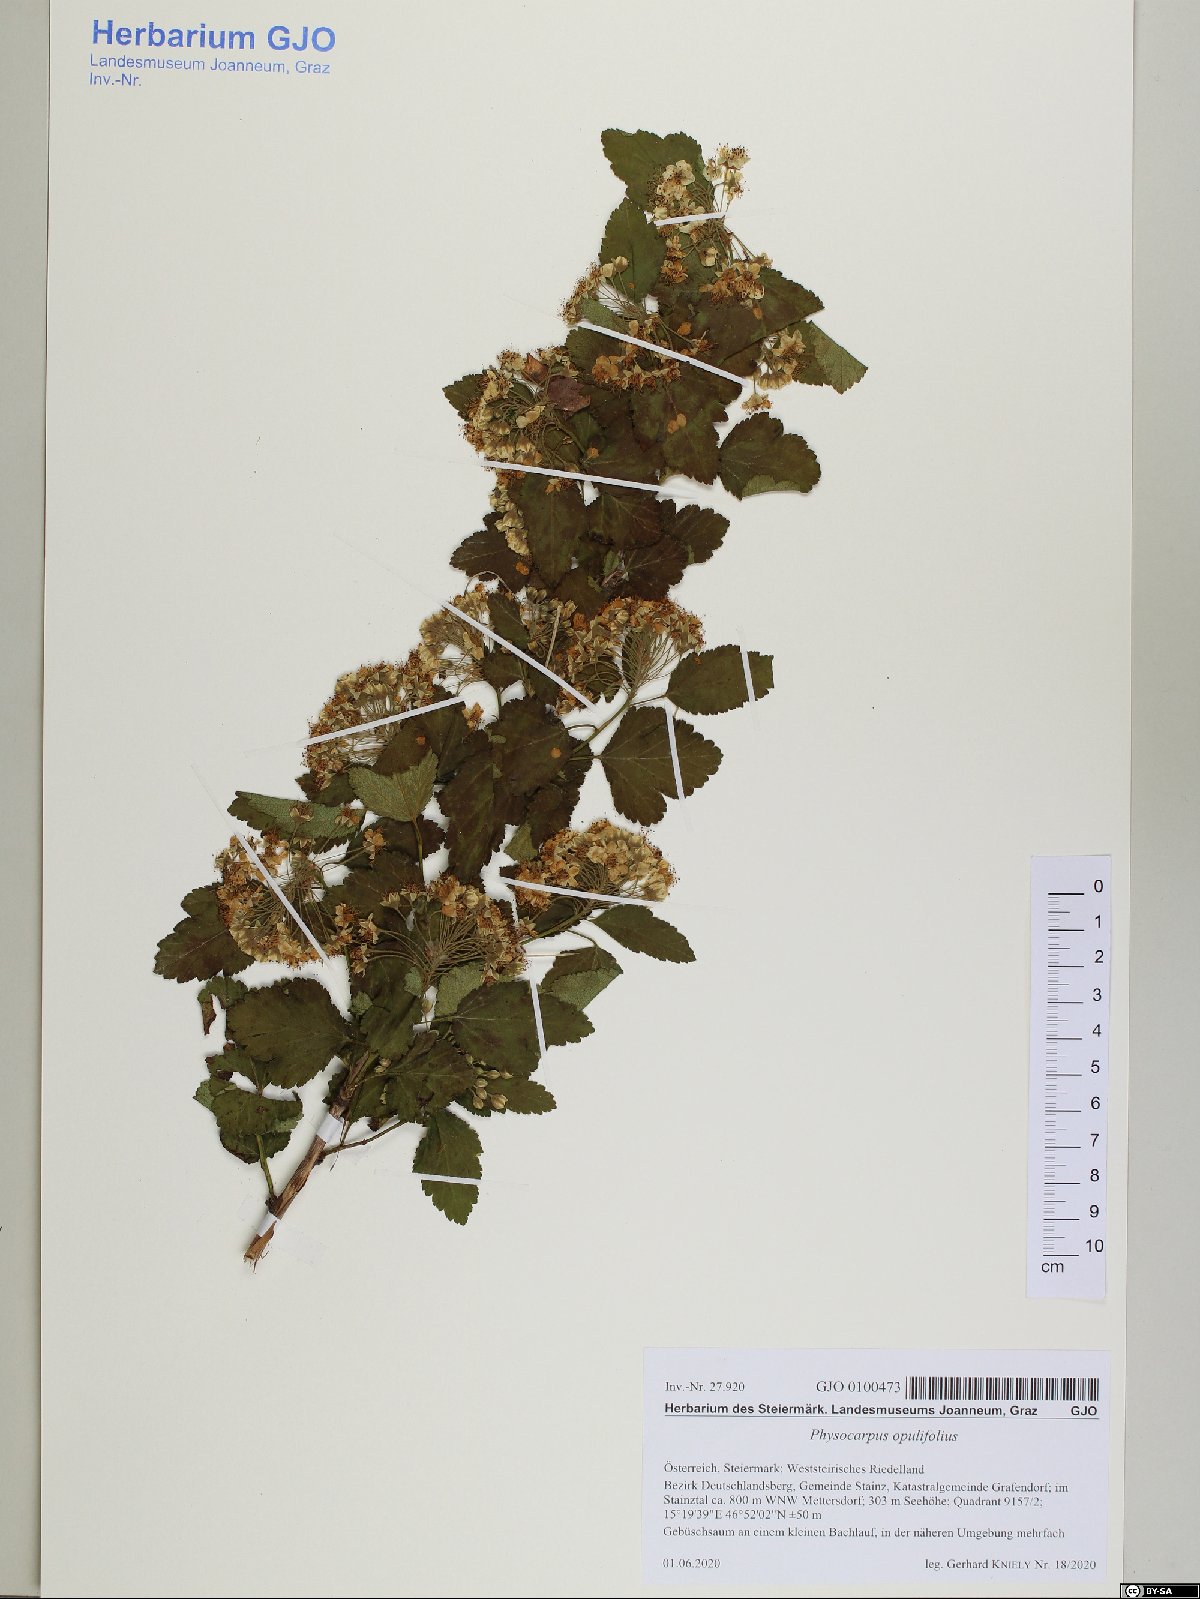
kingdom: Plantae
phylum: Tracheophyta
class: Magnoliopsida
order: Rosales
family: Rosaceae
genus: Physocarpus
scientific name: Physocarpus opulifolius
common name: Ninebark
